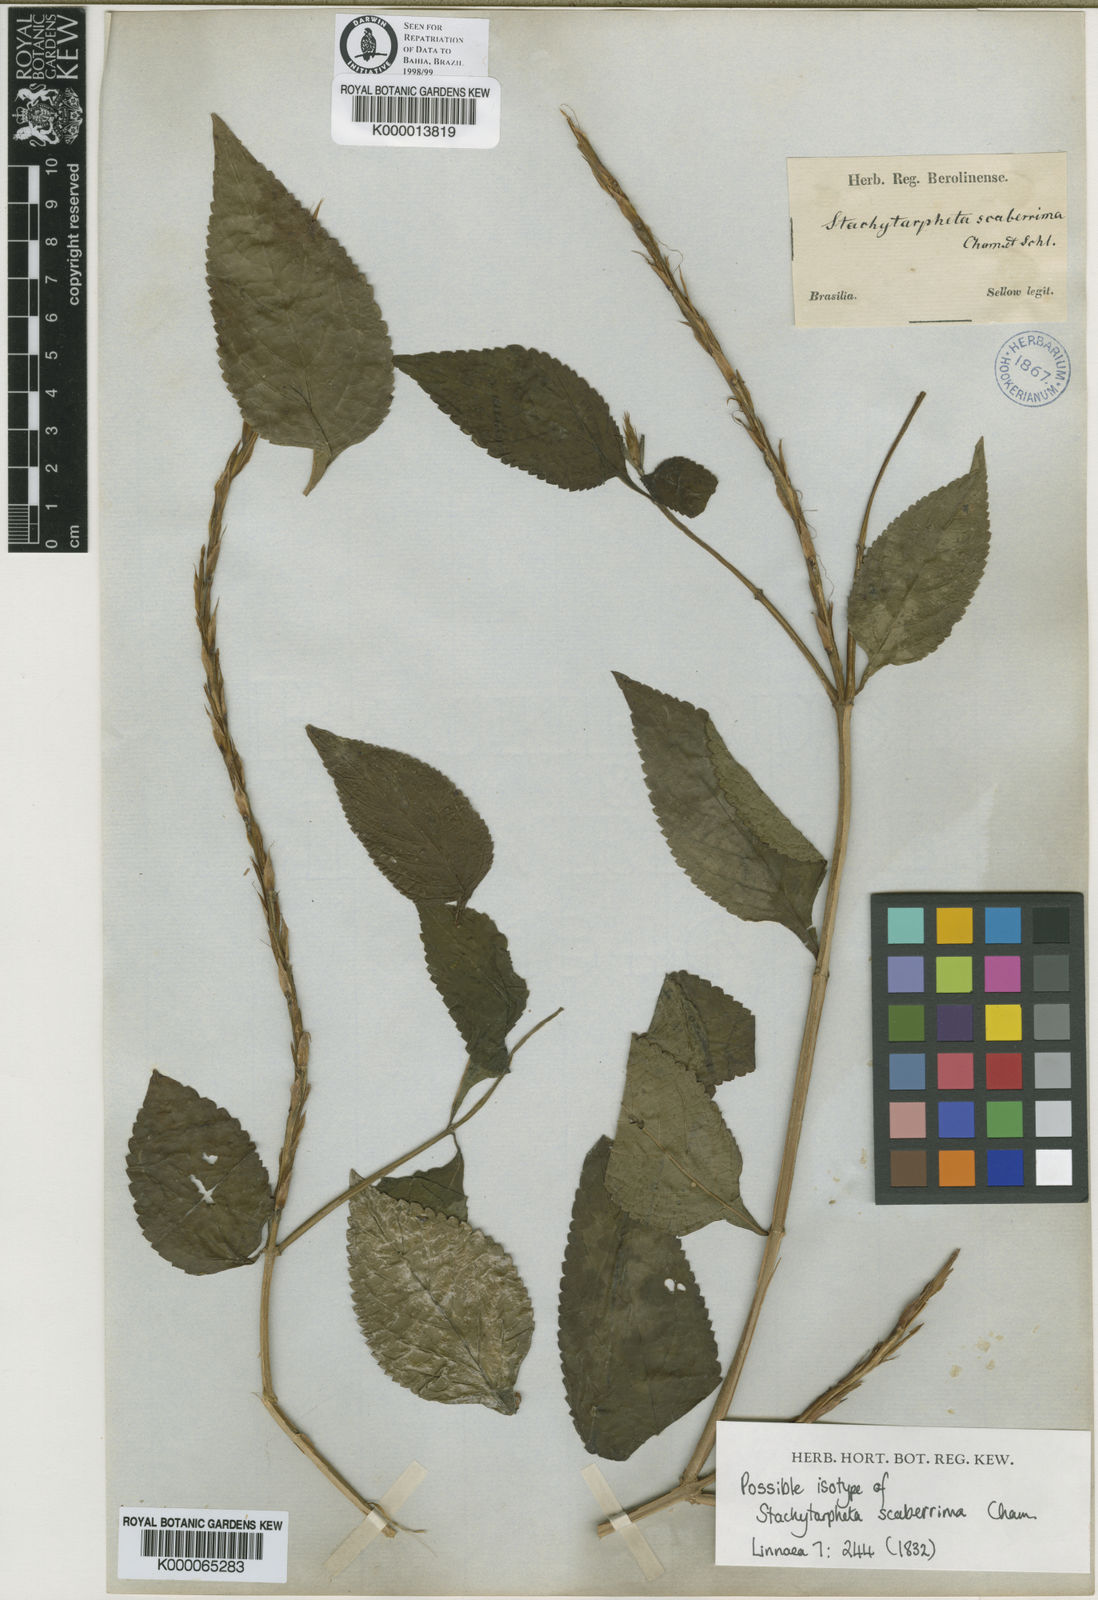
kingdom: Plantae
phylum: Tracheophyta
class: Magnoliopsida
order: Lamiales
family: Verbenaceae
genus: Stachytarpheta
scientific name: Stachytarpheta scaberrima
